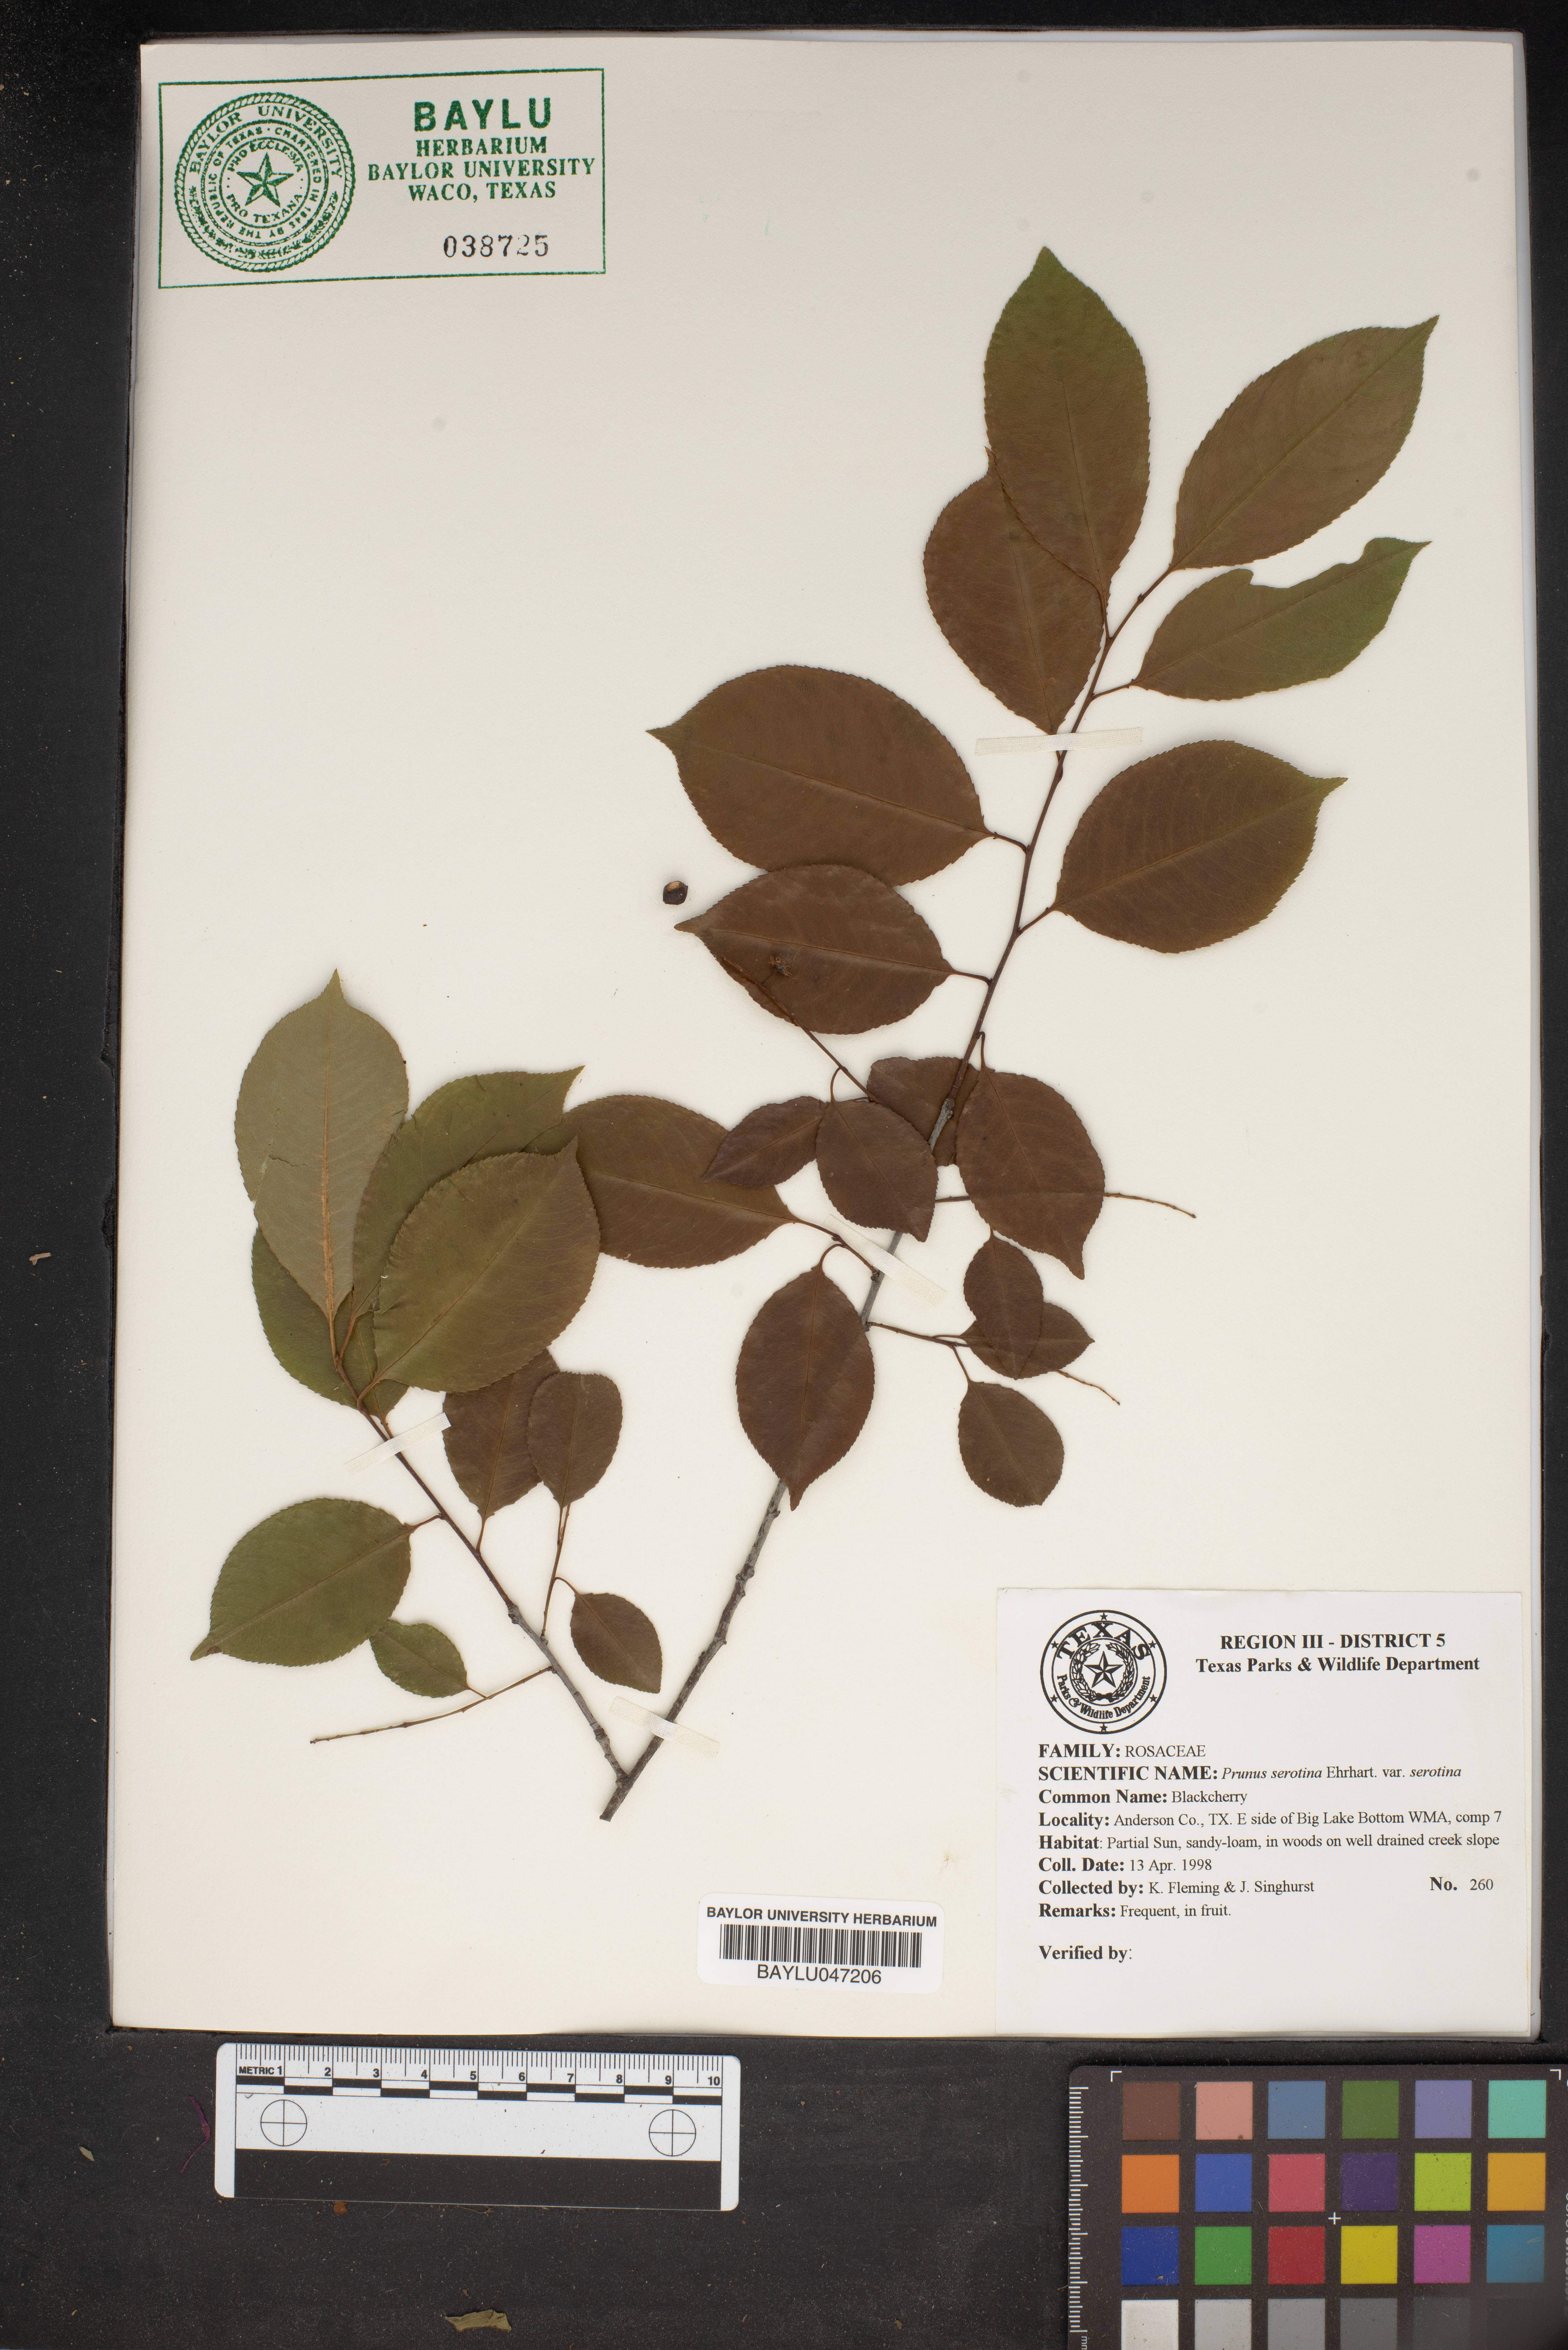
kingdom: Plantae
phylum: Tracheophyta
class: Magnoliopsida
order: Rosales
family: Rosaceae
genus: Prunus
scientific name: Prunus serotina
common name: Black cherry
